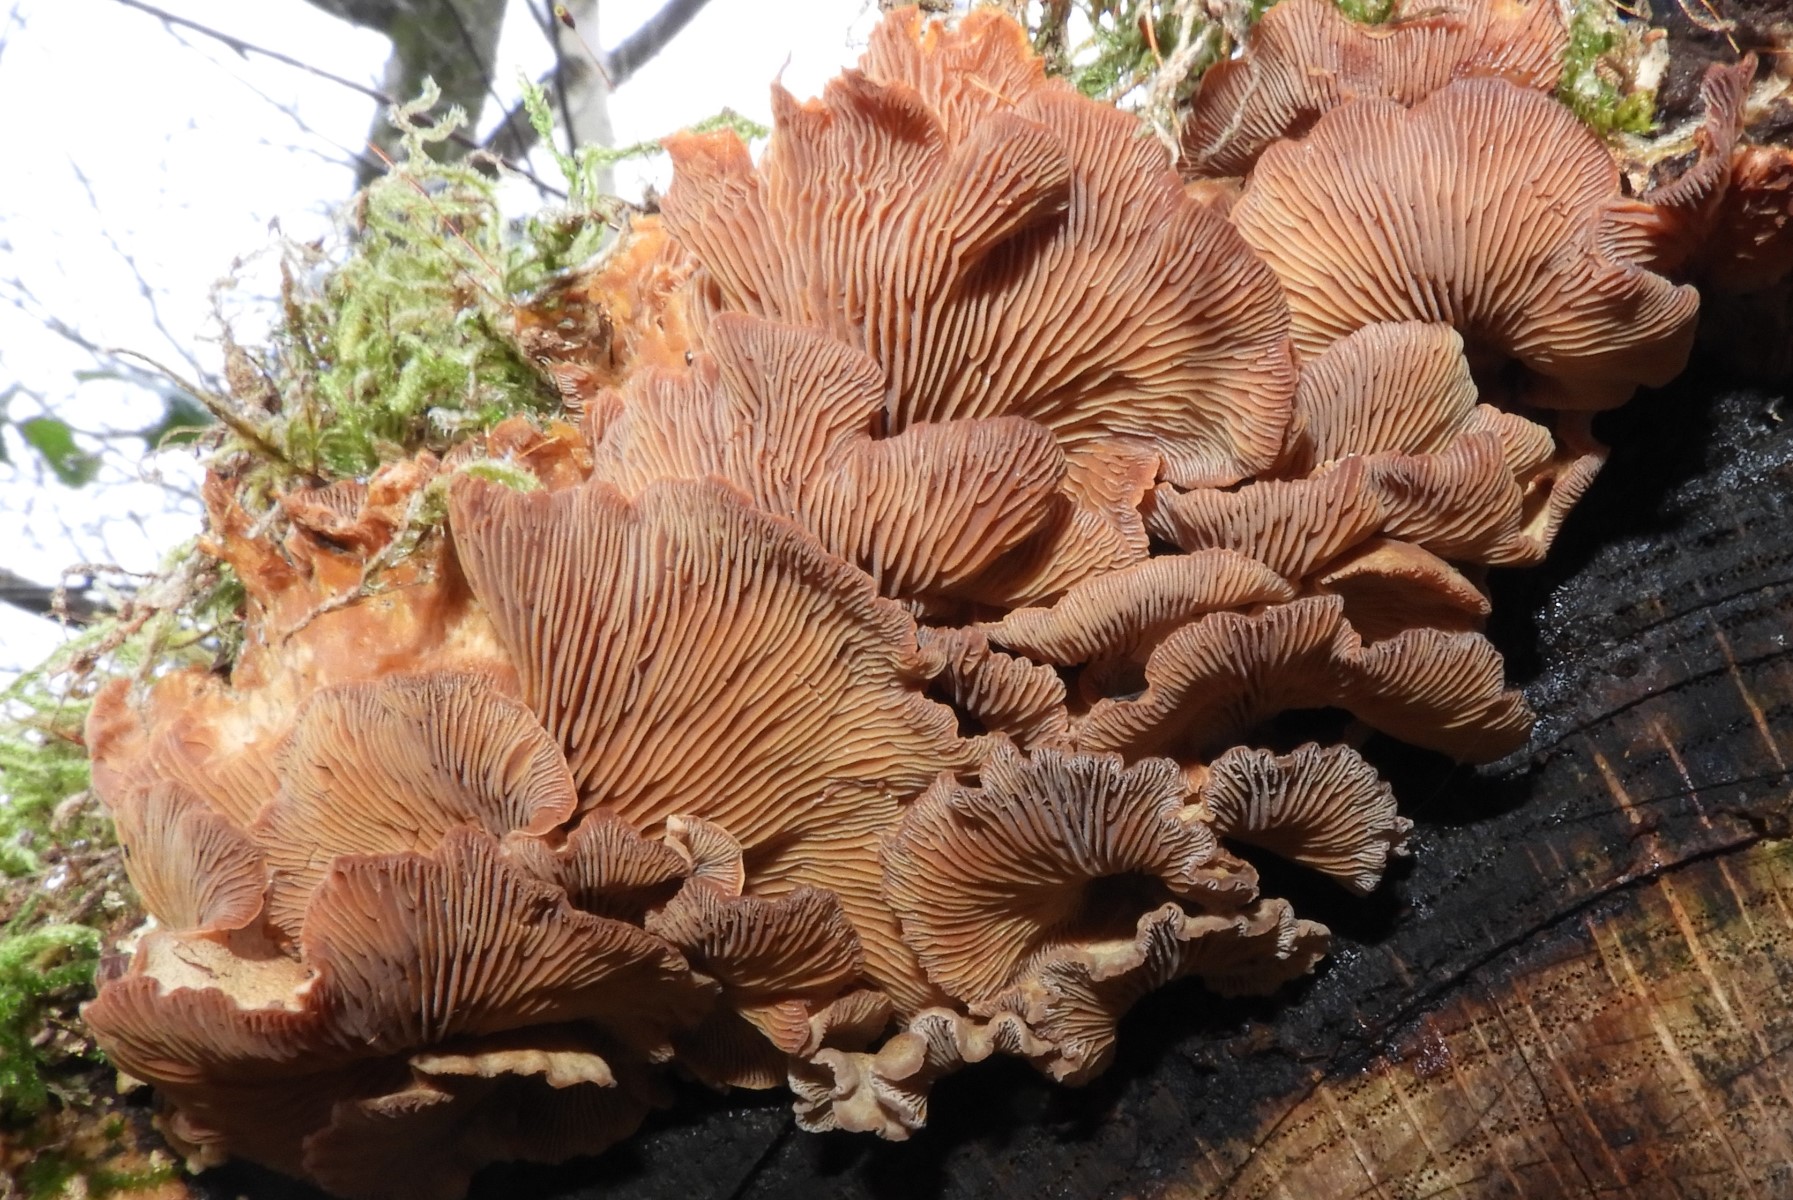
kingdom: Fungi
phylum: Basidiomycota
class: Agaricomycetes
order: Agaricales
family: Mycenaceae
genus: Panellus
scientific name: Panellus stipticus
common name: kliddet epaulethat
